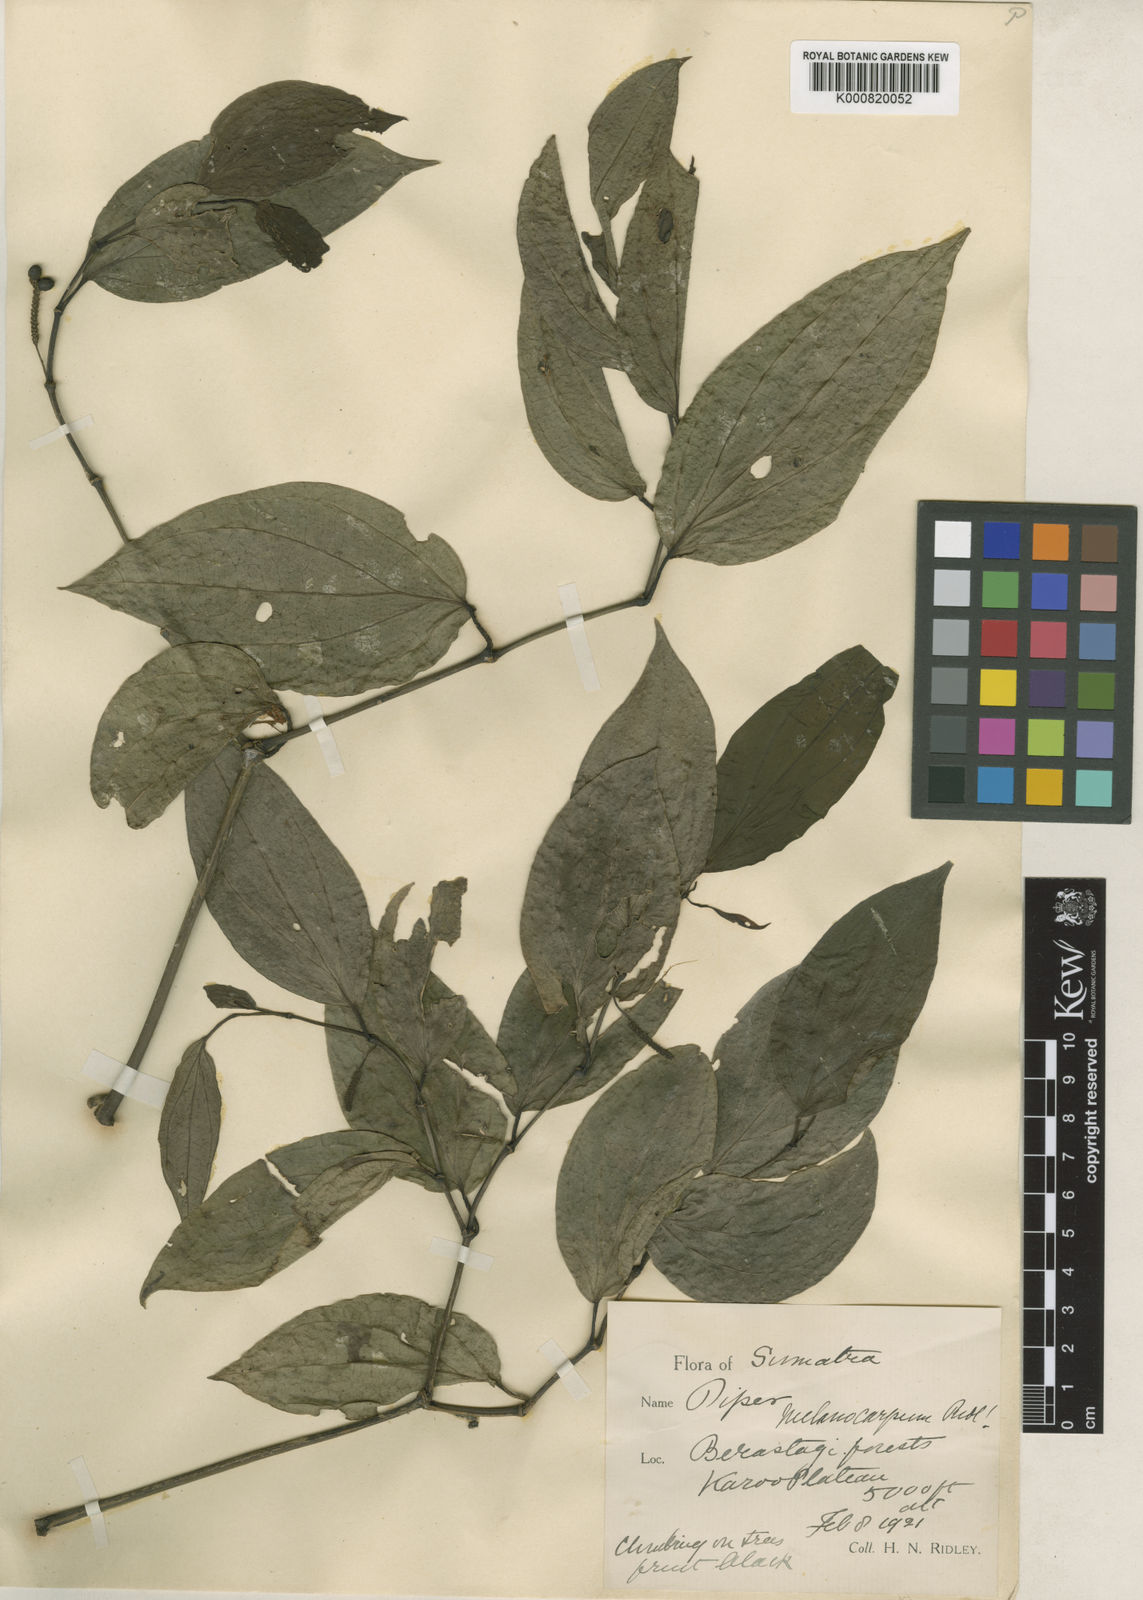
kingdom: Plantae
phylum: Tracheophyta
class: Magnoliopsida
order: Piperales
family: Piperaceae
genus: Piper
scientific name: Piper sulcatum
